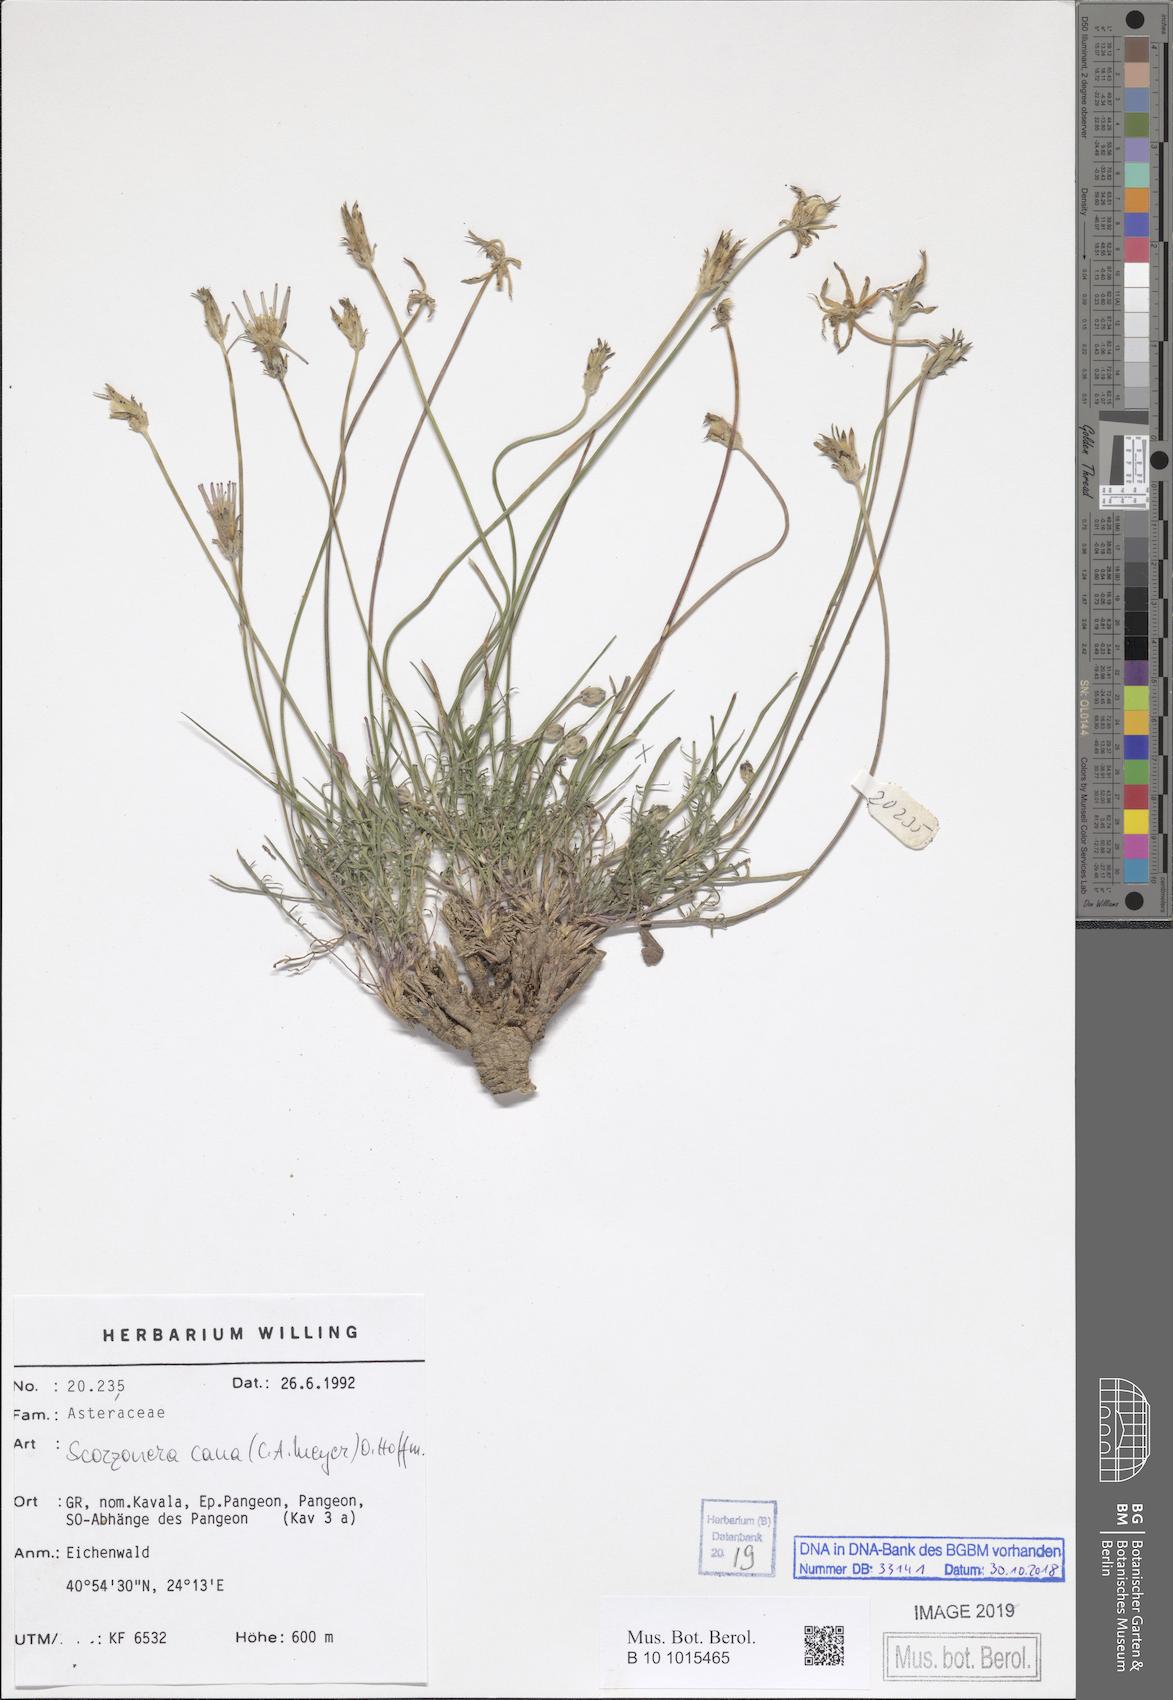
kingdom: Plantae
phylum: Tracheophyta
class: Magnoliopsida
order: Asterales
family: Asteraceae
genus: Scorzonera
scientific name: Scorzonera cana
